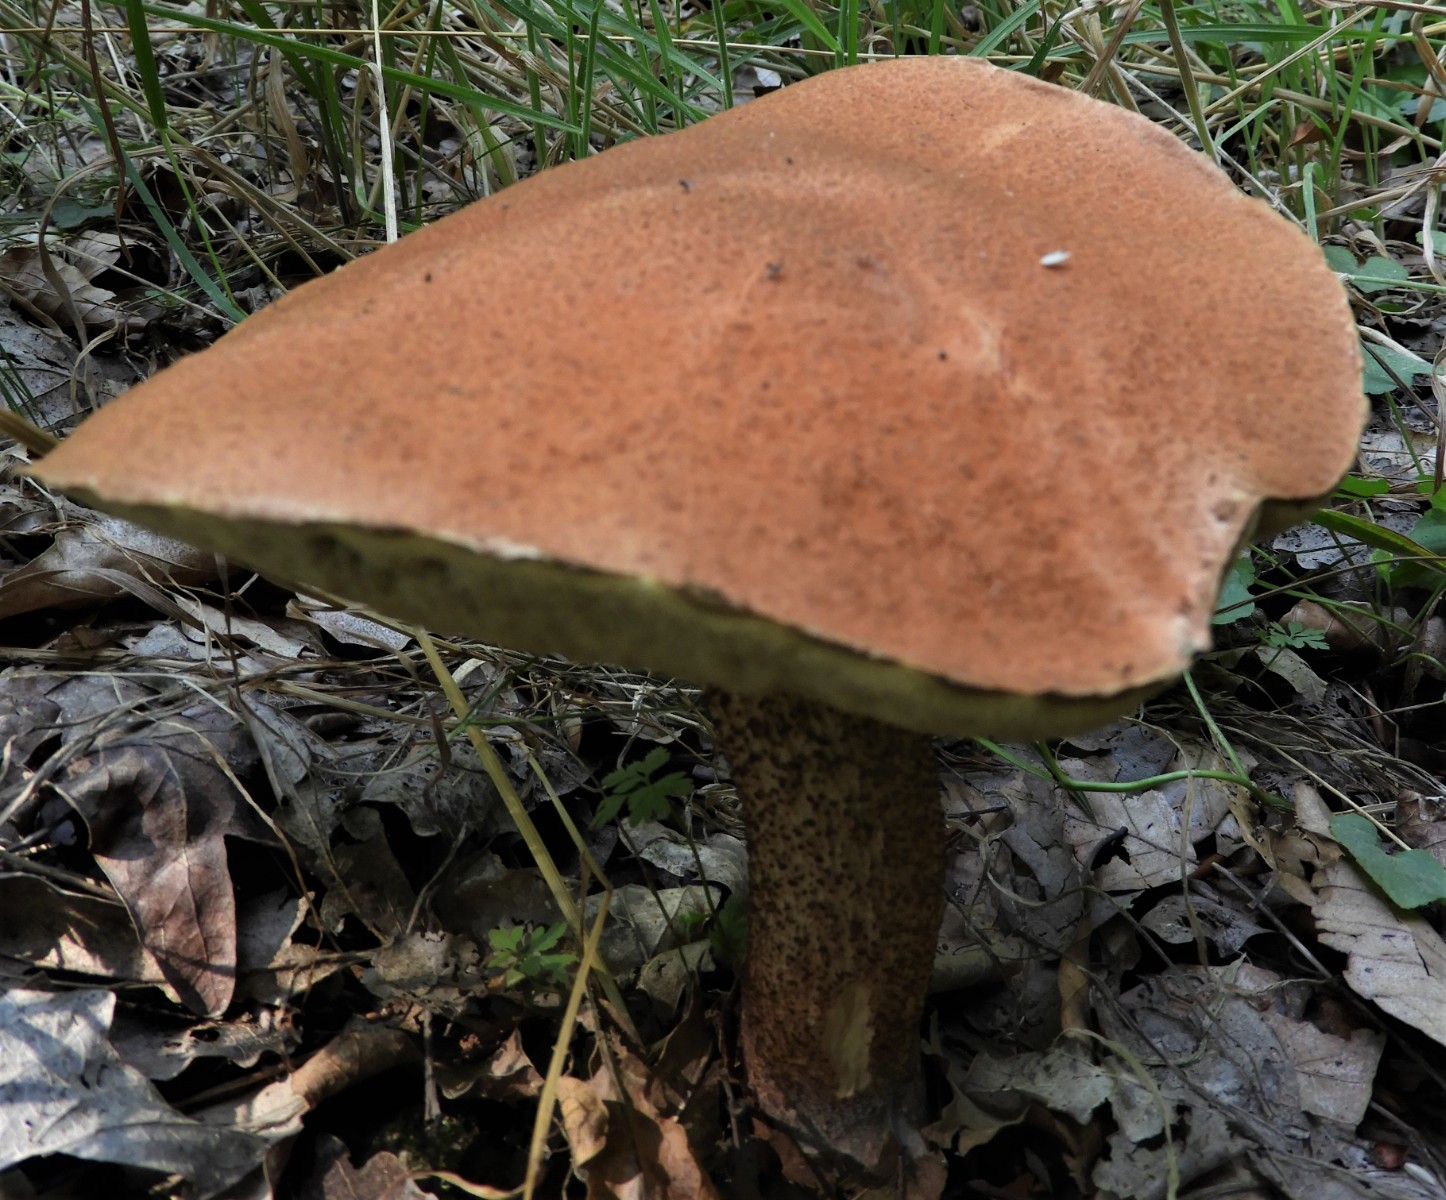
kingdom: Fungi
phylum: Basidiomycota
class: Agaricomycetes
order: Boletales
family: Boletaceae
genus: Leccinum
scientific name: Leccinum aurantiacum
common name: rustrød skælrørhat
